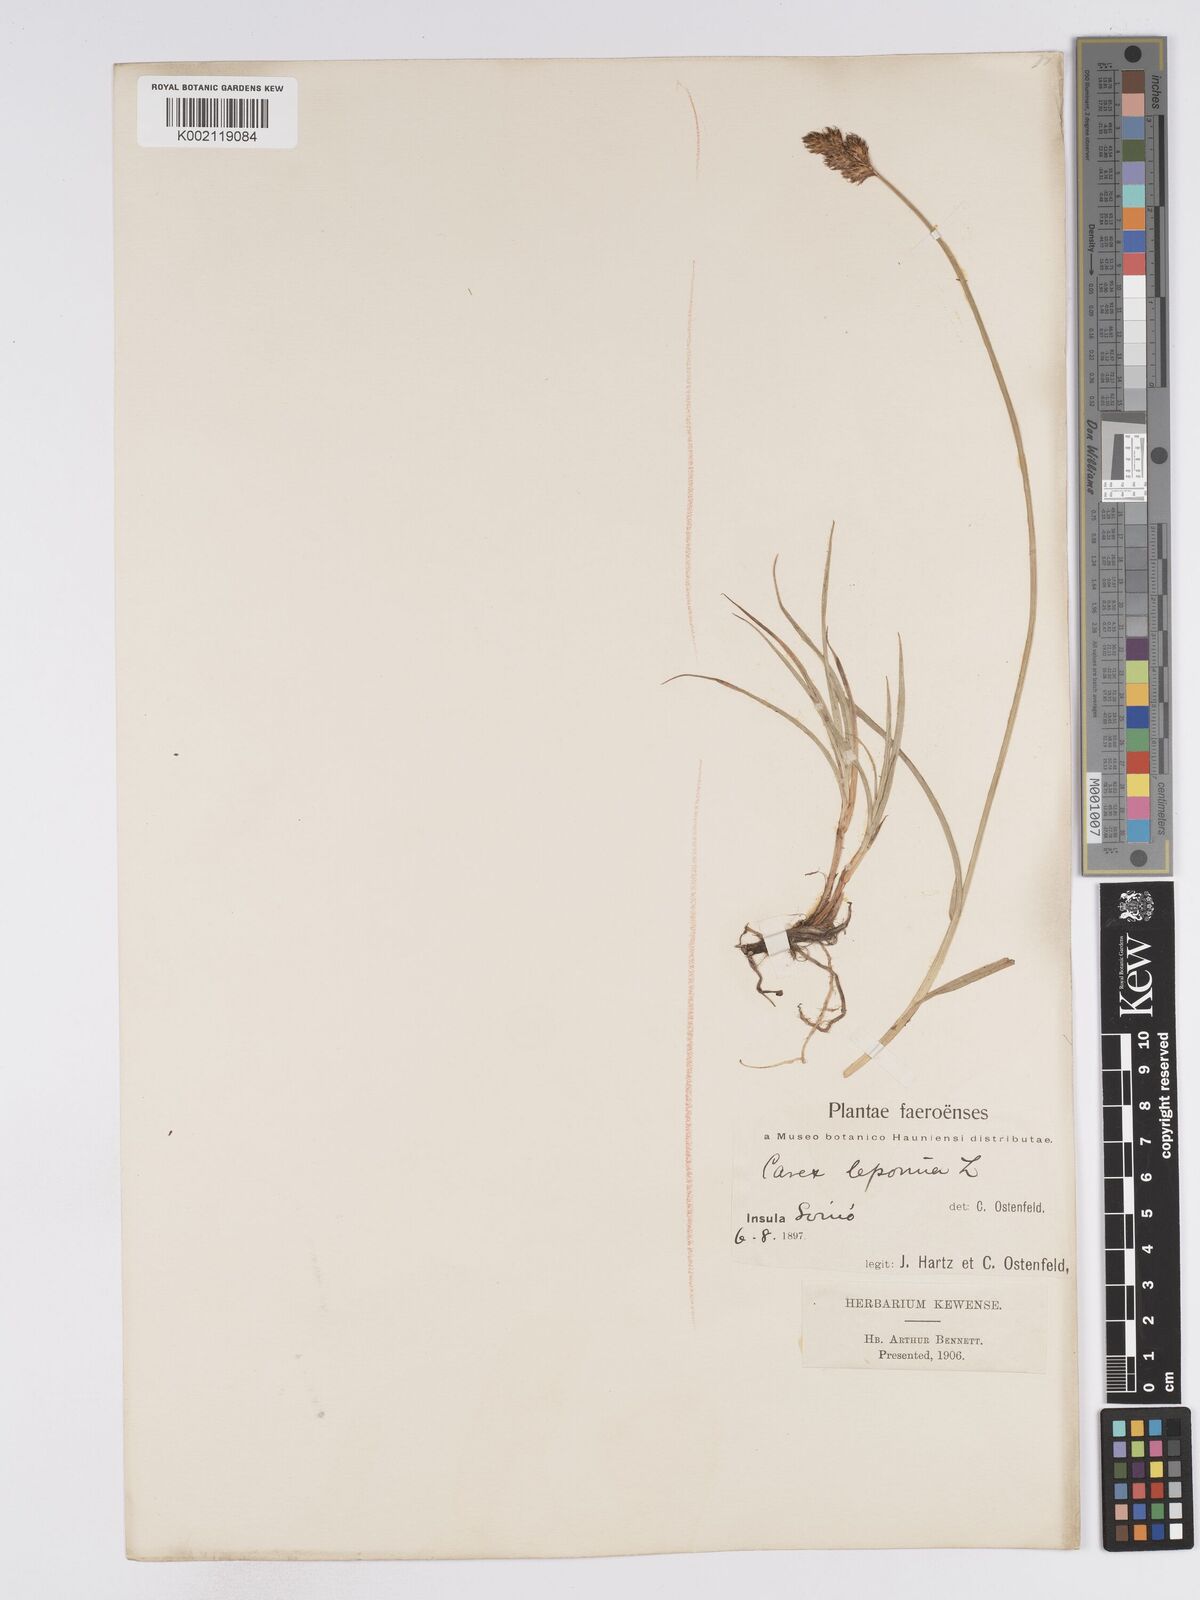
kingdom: Plantae
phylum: Tracheophyta
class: Liliopsida
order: Poales
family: Cyperaceae
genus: Carex
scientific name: Carex leporina
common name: Oval sedge
